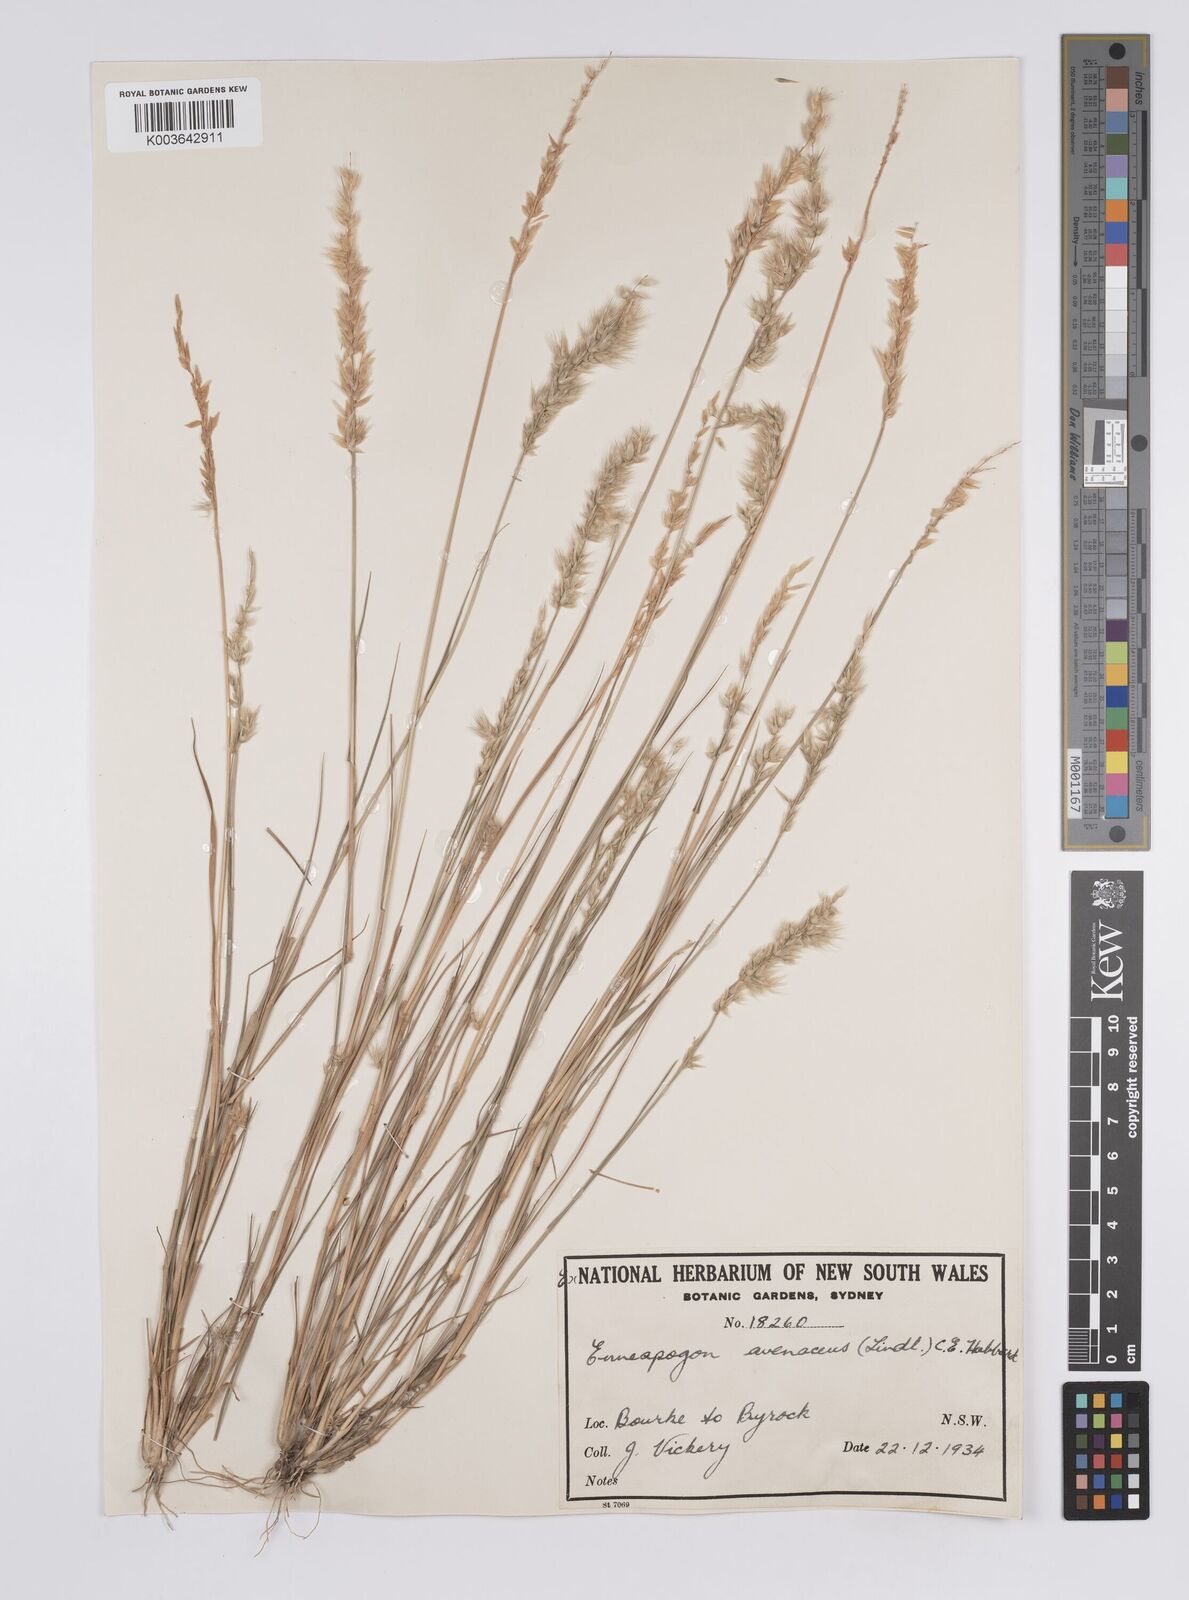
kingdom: Plantae
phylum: Tracheophyta
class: Liliopsida
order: Poales
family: Poaceae
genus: Enneapogon
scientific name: Enneapogon avenaceus
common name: Hairy oat grass
